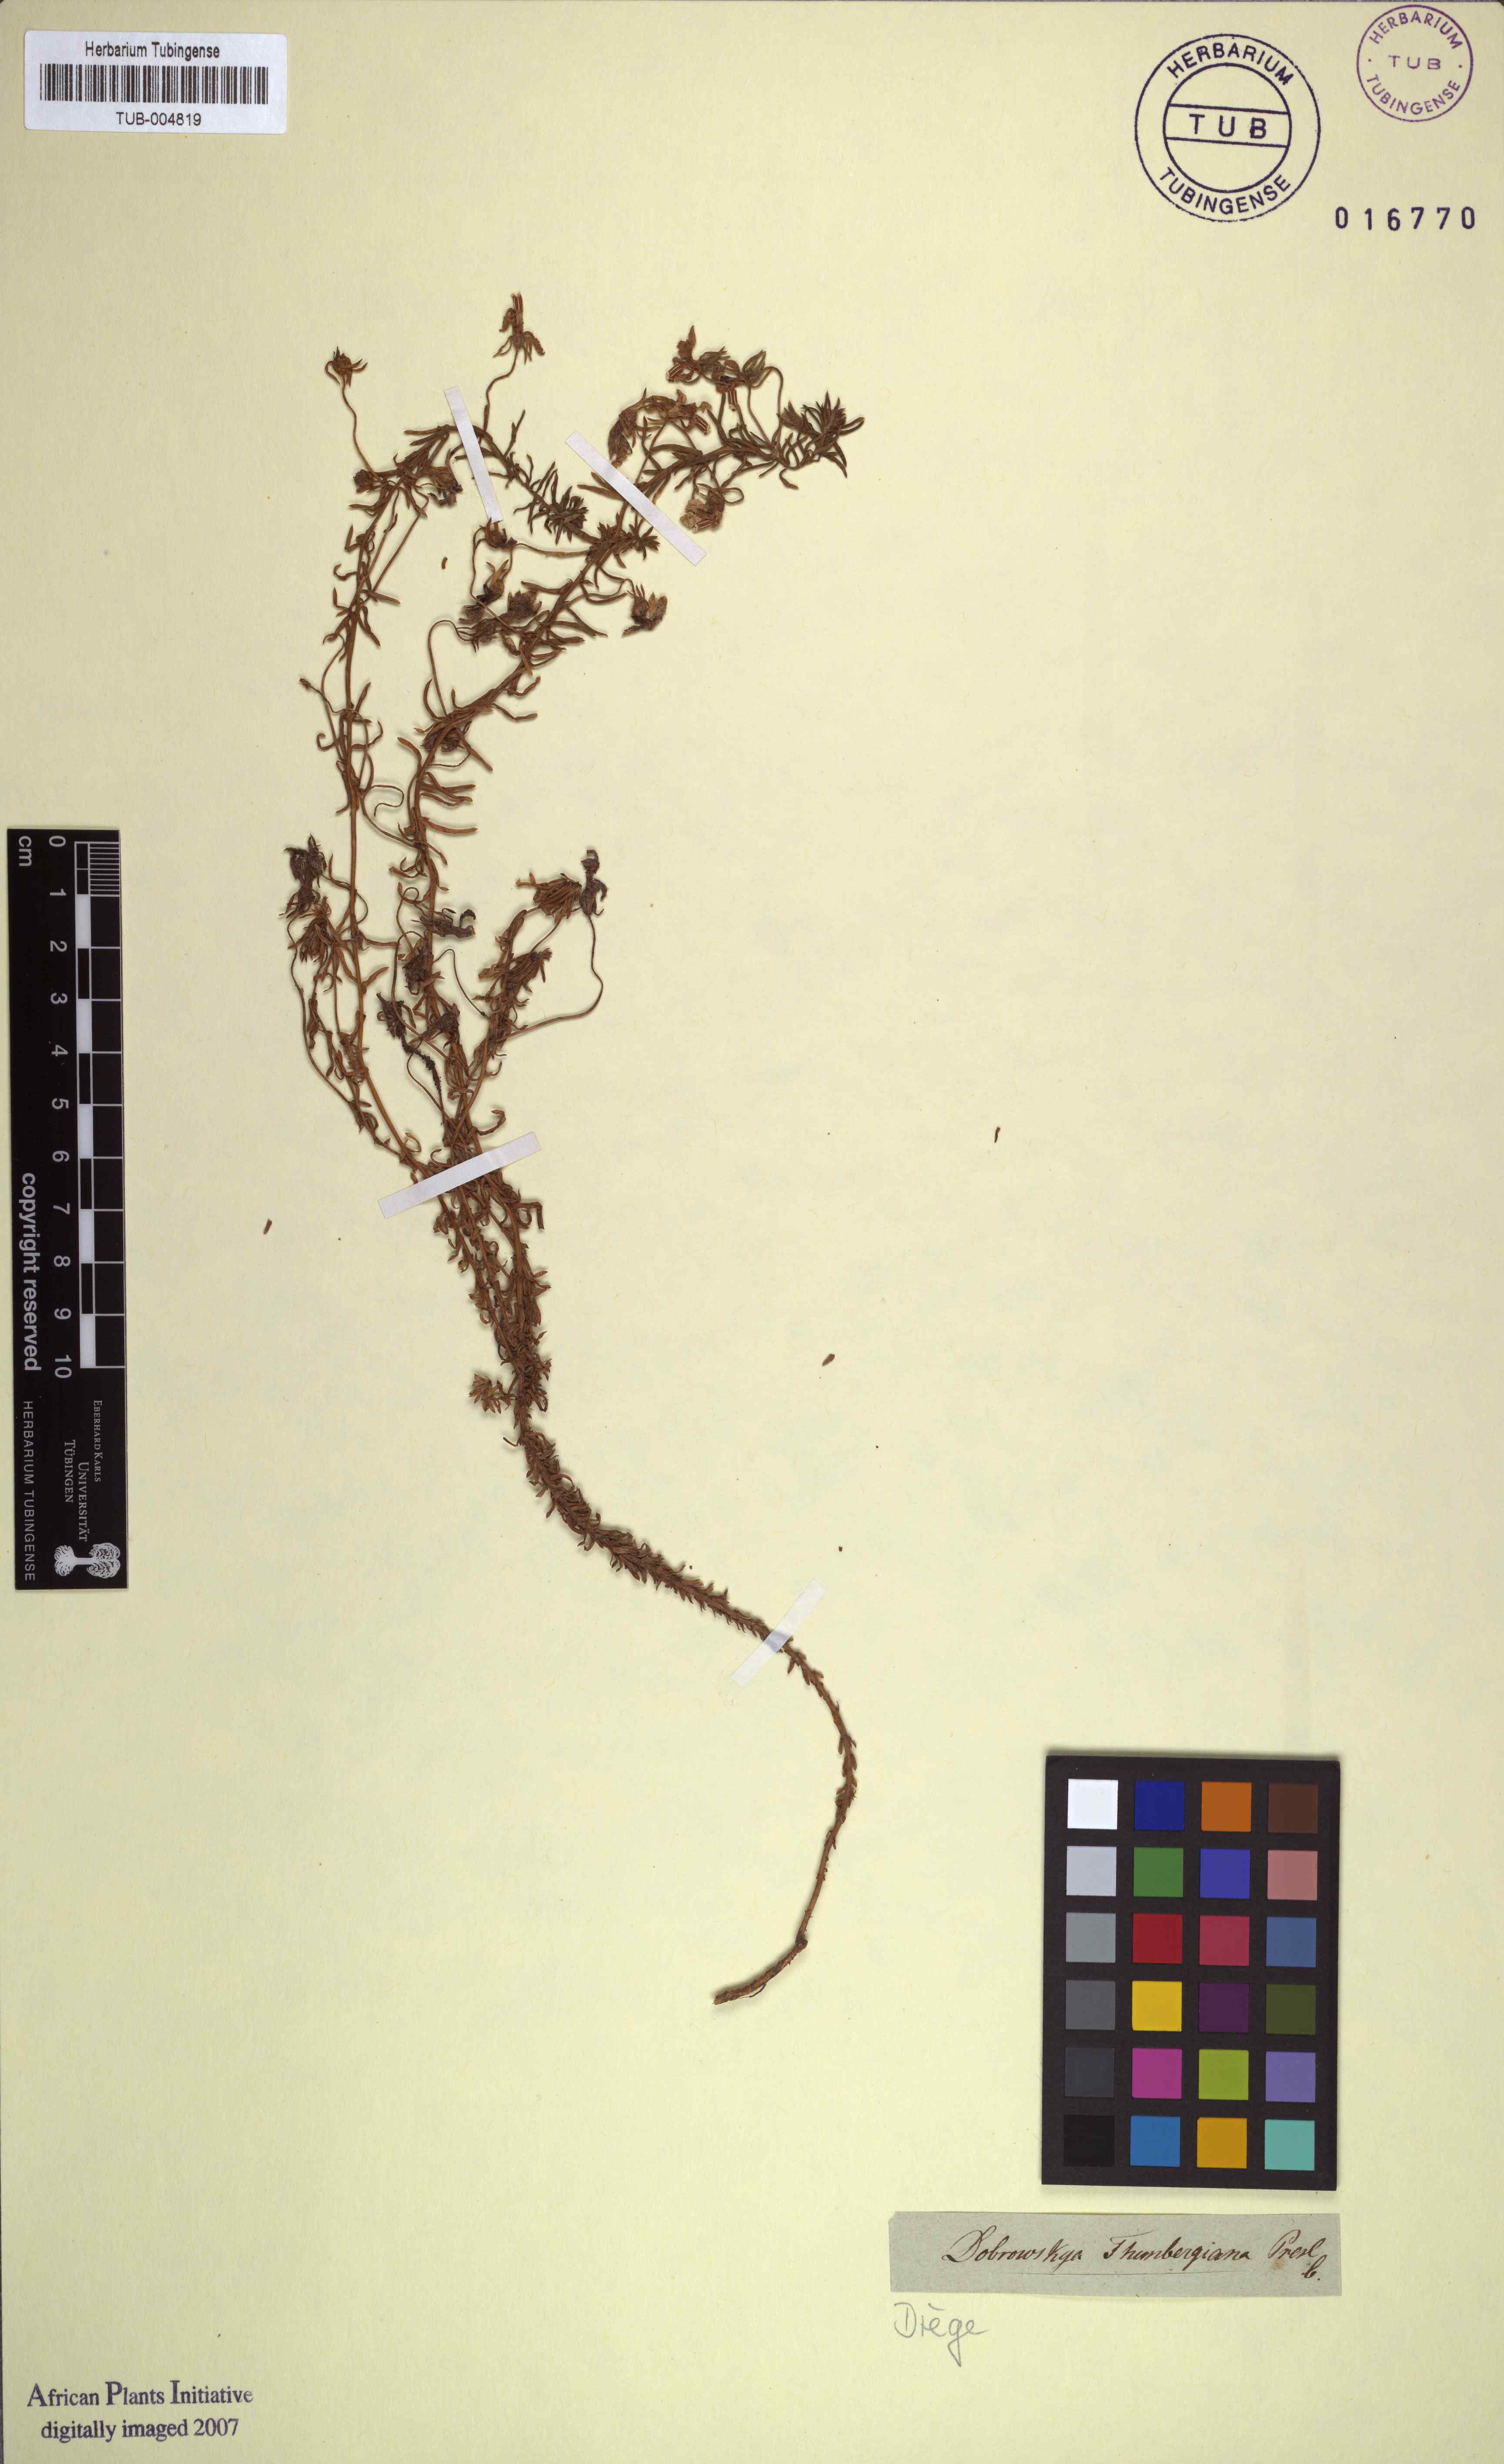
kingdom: Plantae
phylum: Tracheophyta
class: Magnoliopsida
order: Asterales
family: Campanulaceae
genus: Monopsis
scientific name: Monopsis scabra
